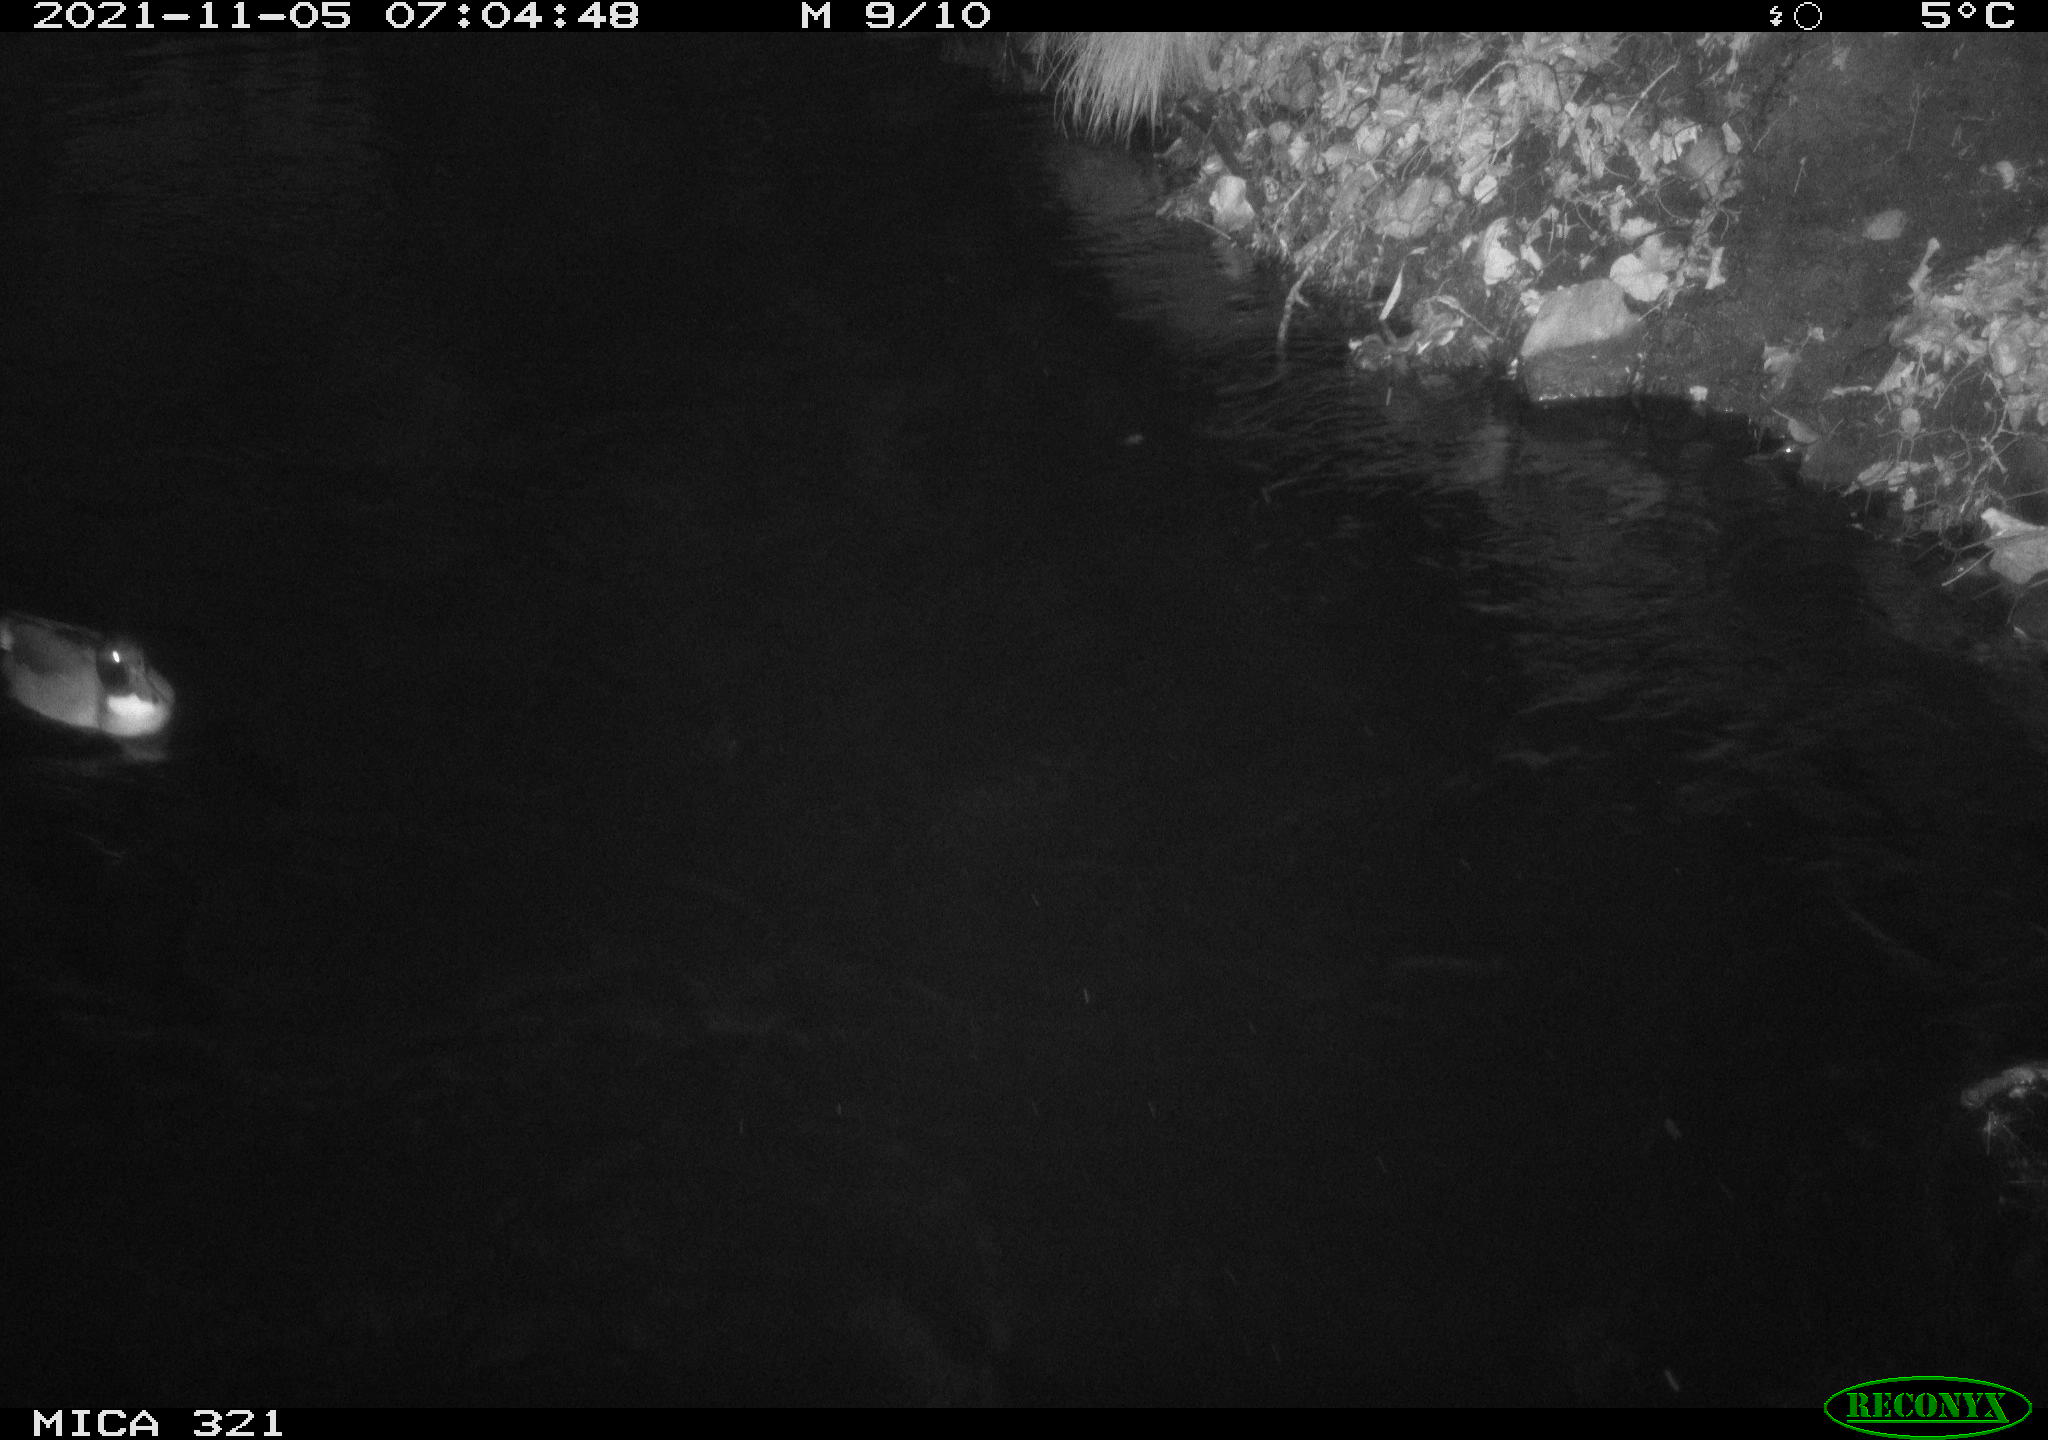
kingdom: Animalia
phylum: Chordata
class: Aves
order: Anseriformes
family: Anatidae
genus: Anas
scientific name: Anas platyrhynchos
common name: Mallard
